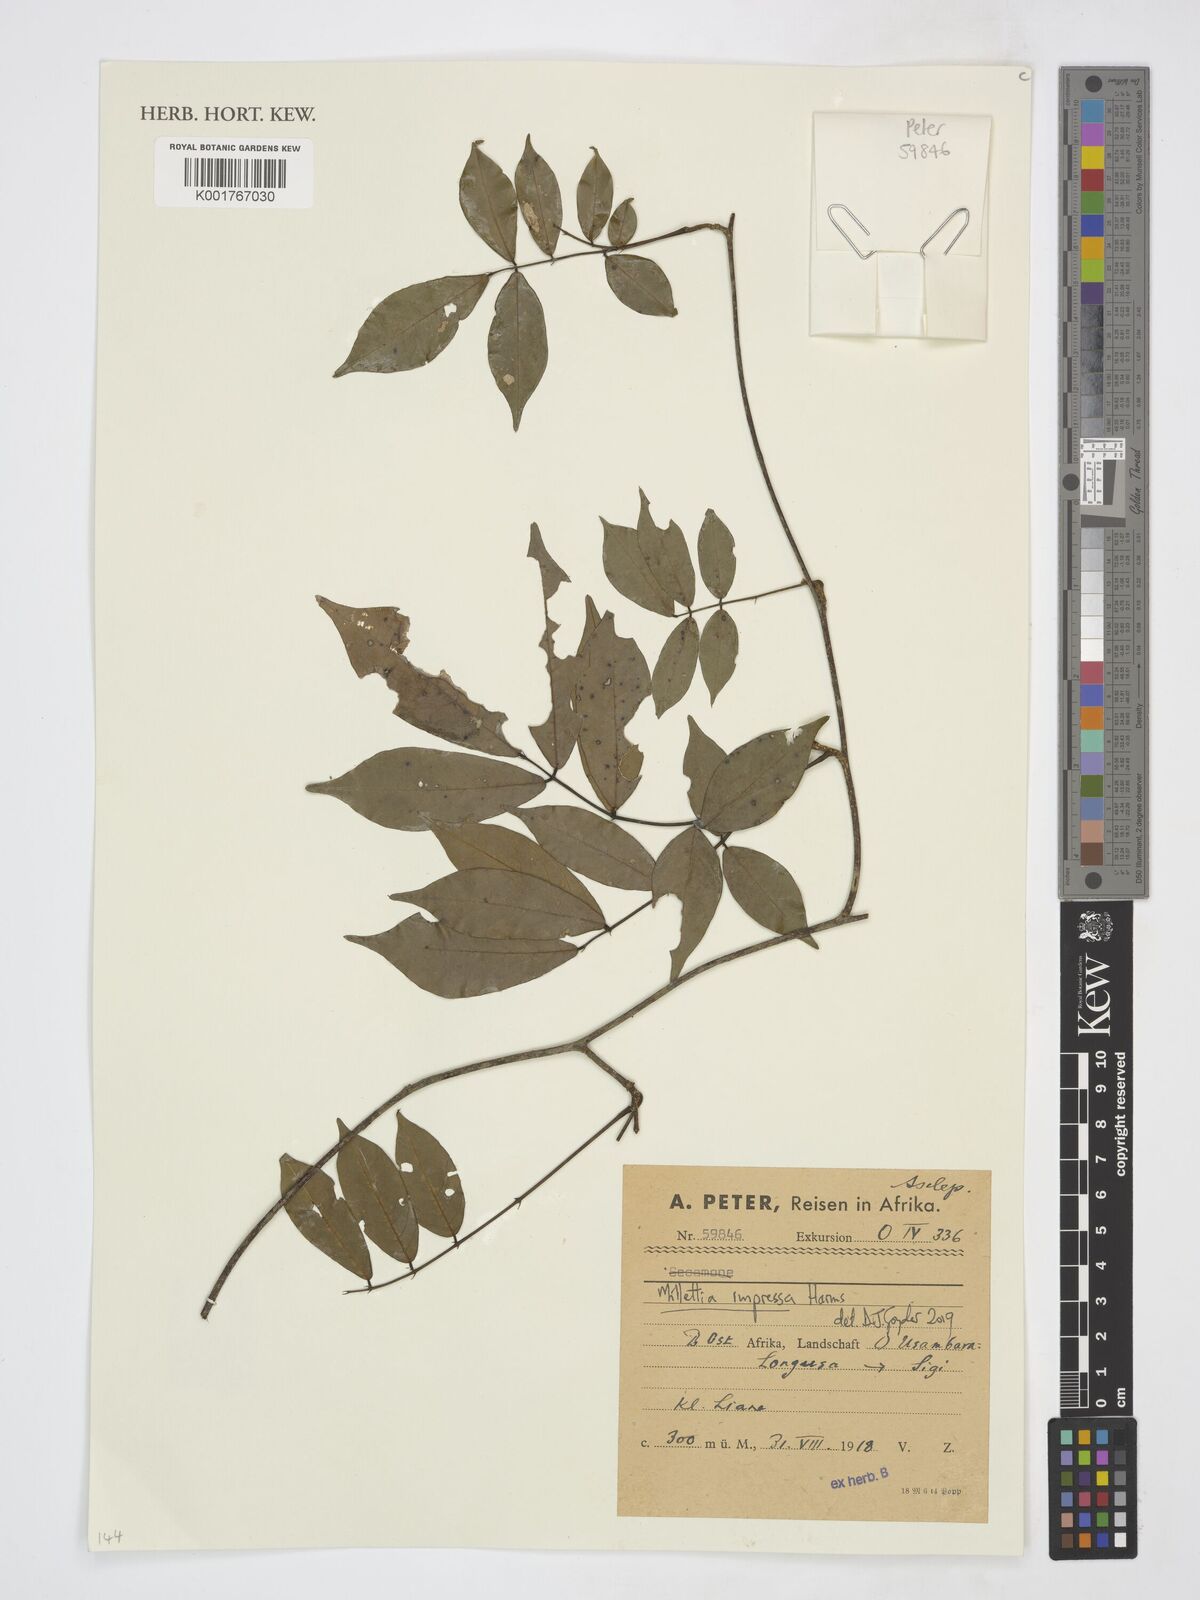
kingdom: Plantae
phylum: Tracheophyta
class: Magnoliopsida
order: Fabales
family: Fabaceae
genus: Millettia
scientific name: Millettia impressa
